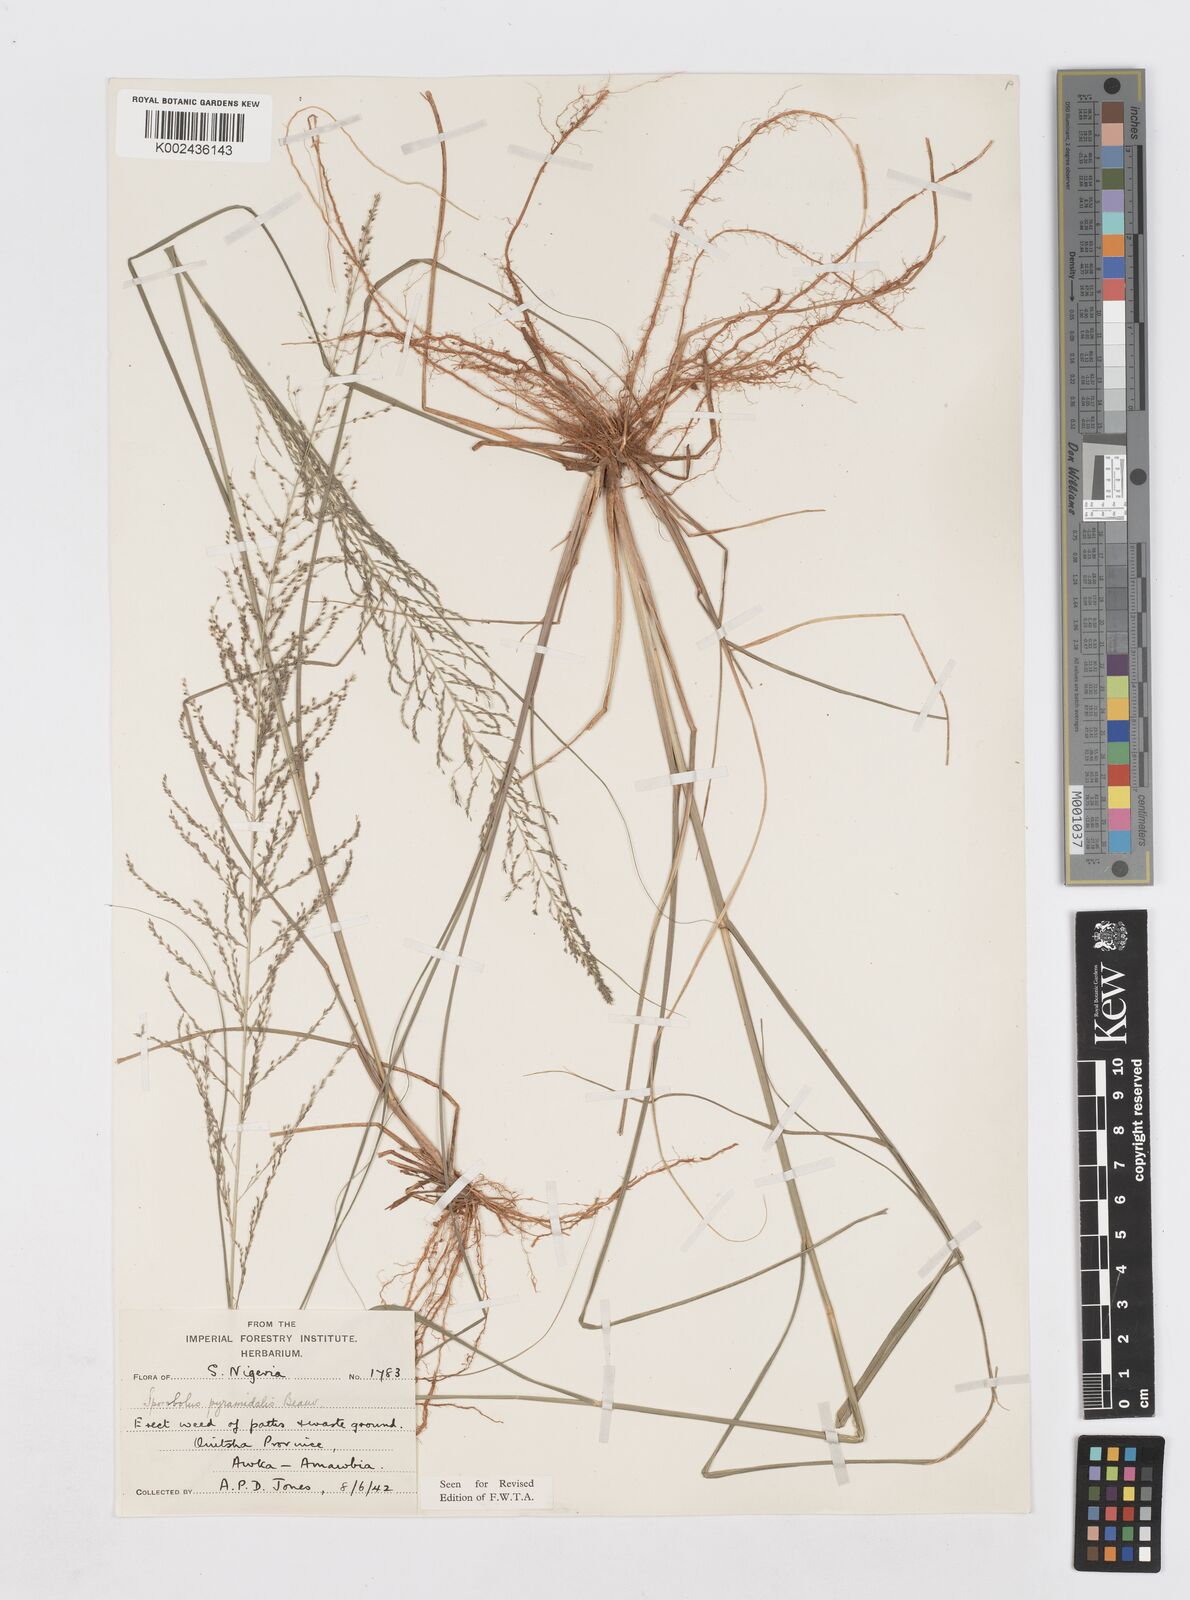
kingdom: Plantae
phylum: Tracheophyta
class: Liliopsida
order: Poales
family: Poaceae
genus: Sporobolus
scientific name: Sporobolus pyramidalis
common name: West indian dropseed
